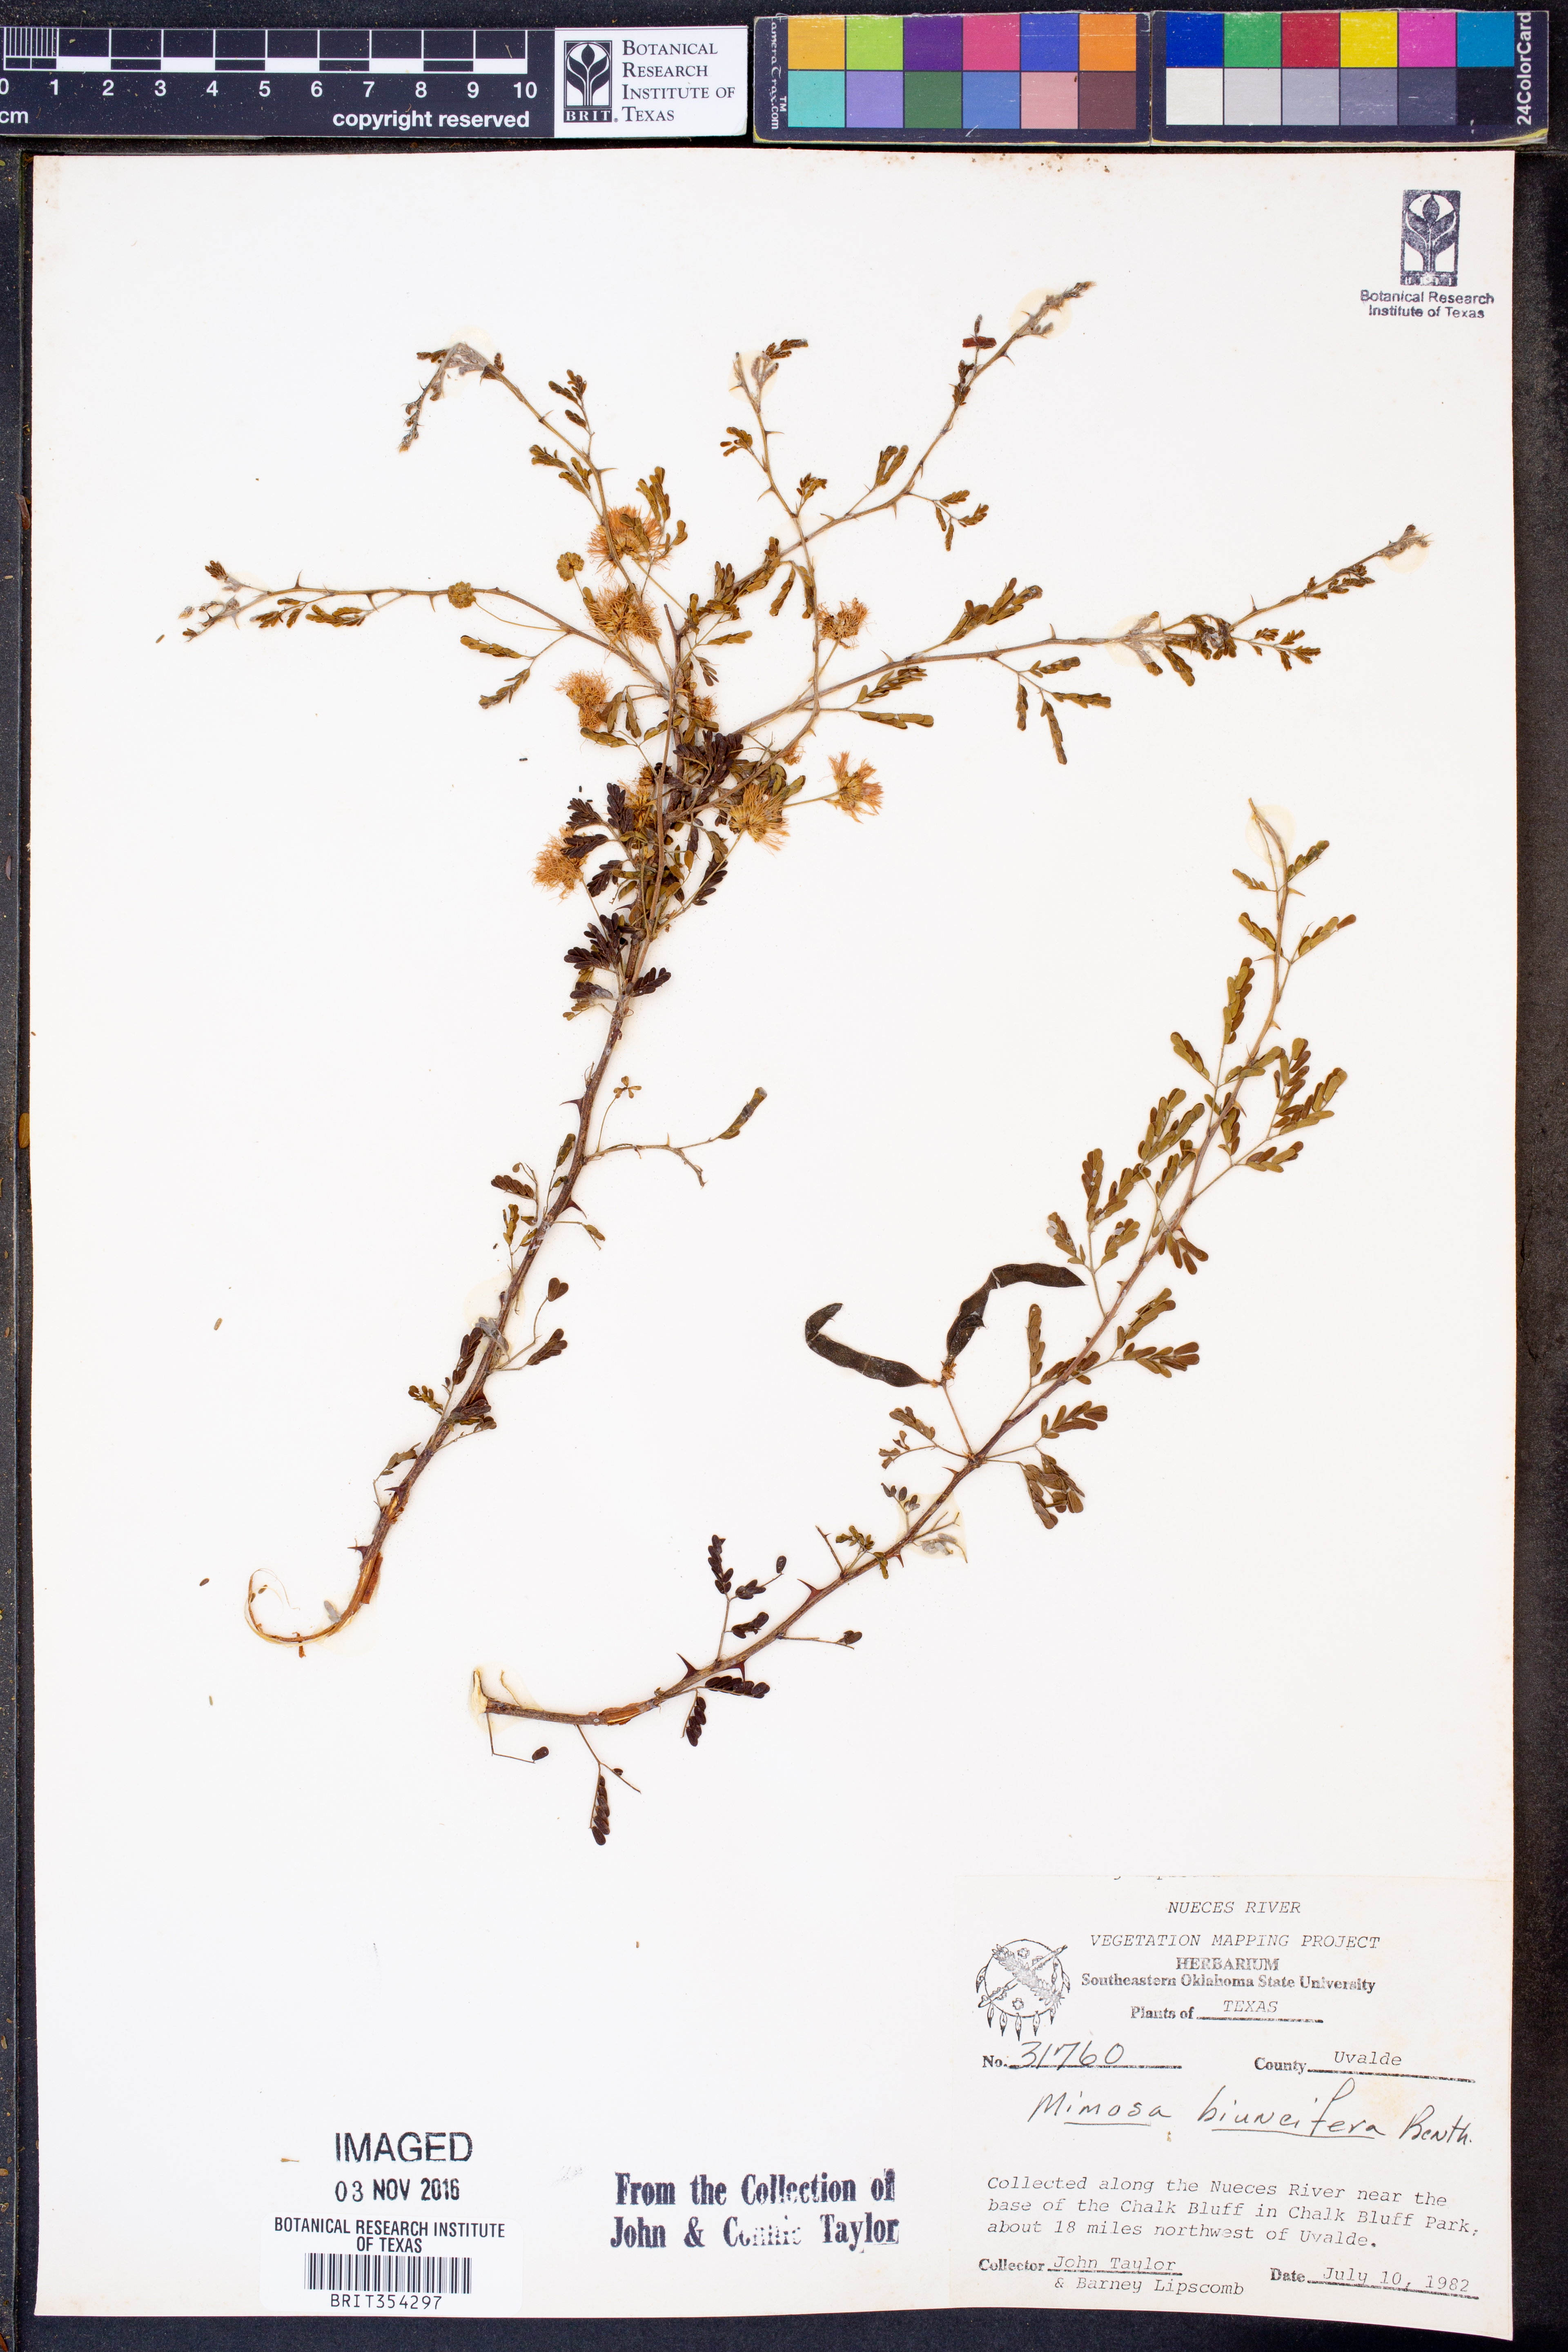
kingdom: Plantae
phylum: Tracheophyta
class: Magnoliopsida
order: Fabales
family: Fabaceae
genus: Mimosa
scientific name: Mimosa biuncifera
